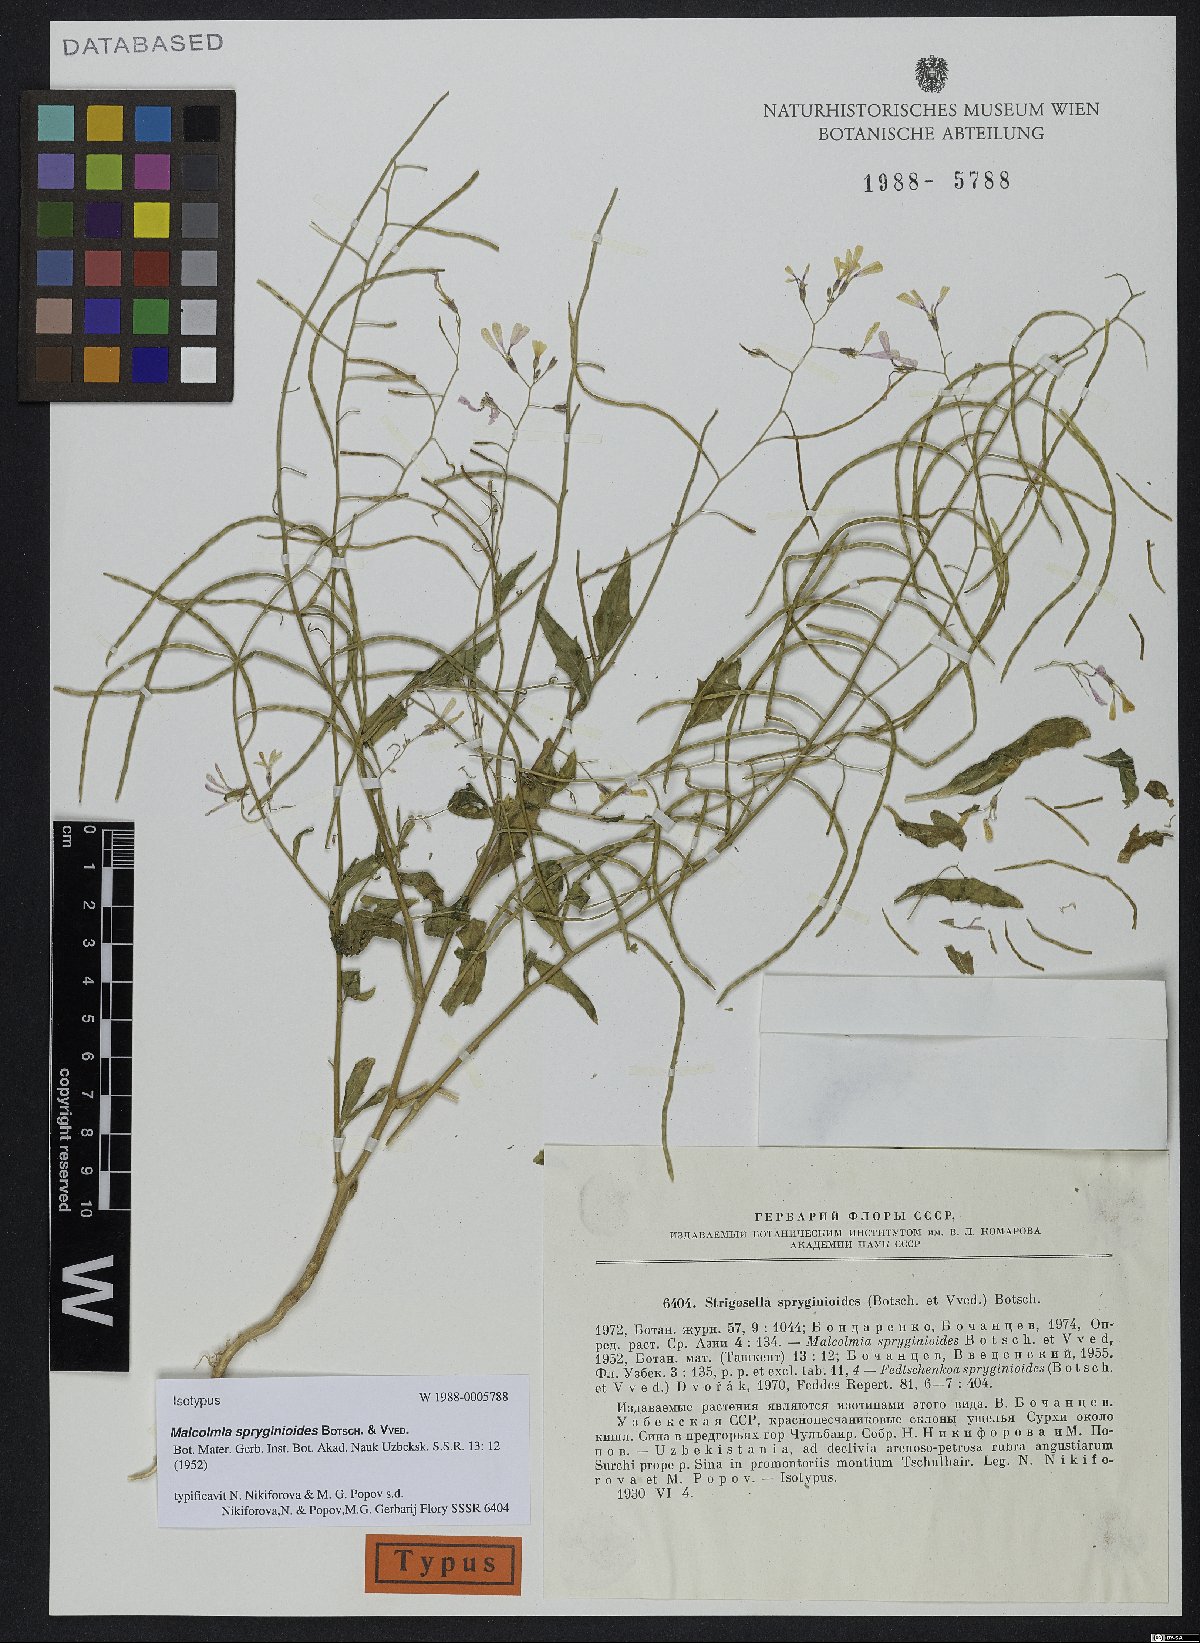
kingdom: Plantae
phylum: Tracheophyta
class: Magnoliopsida
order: Brassicales
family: Brassicaceae
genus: Strigosella
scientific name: Strigosella spryginioides
